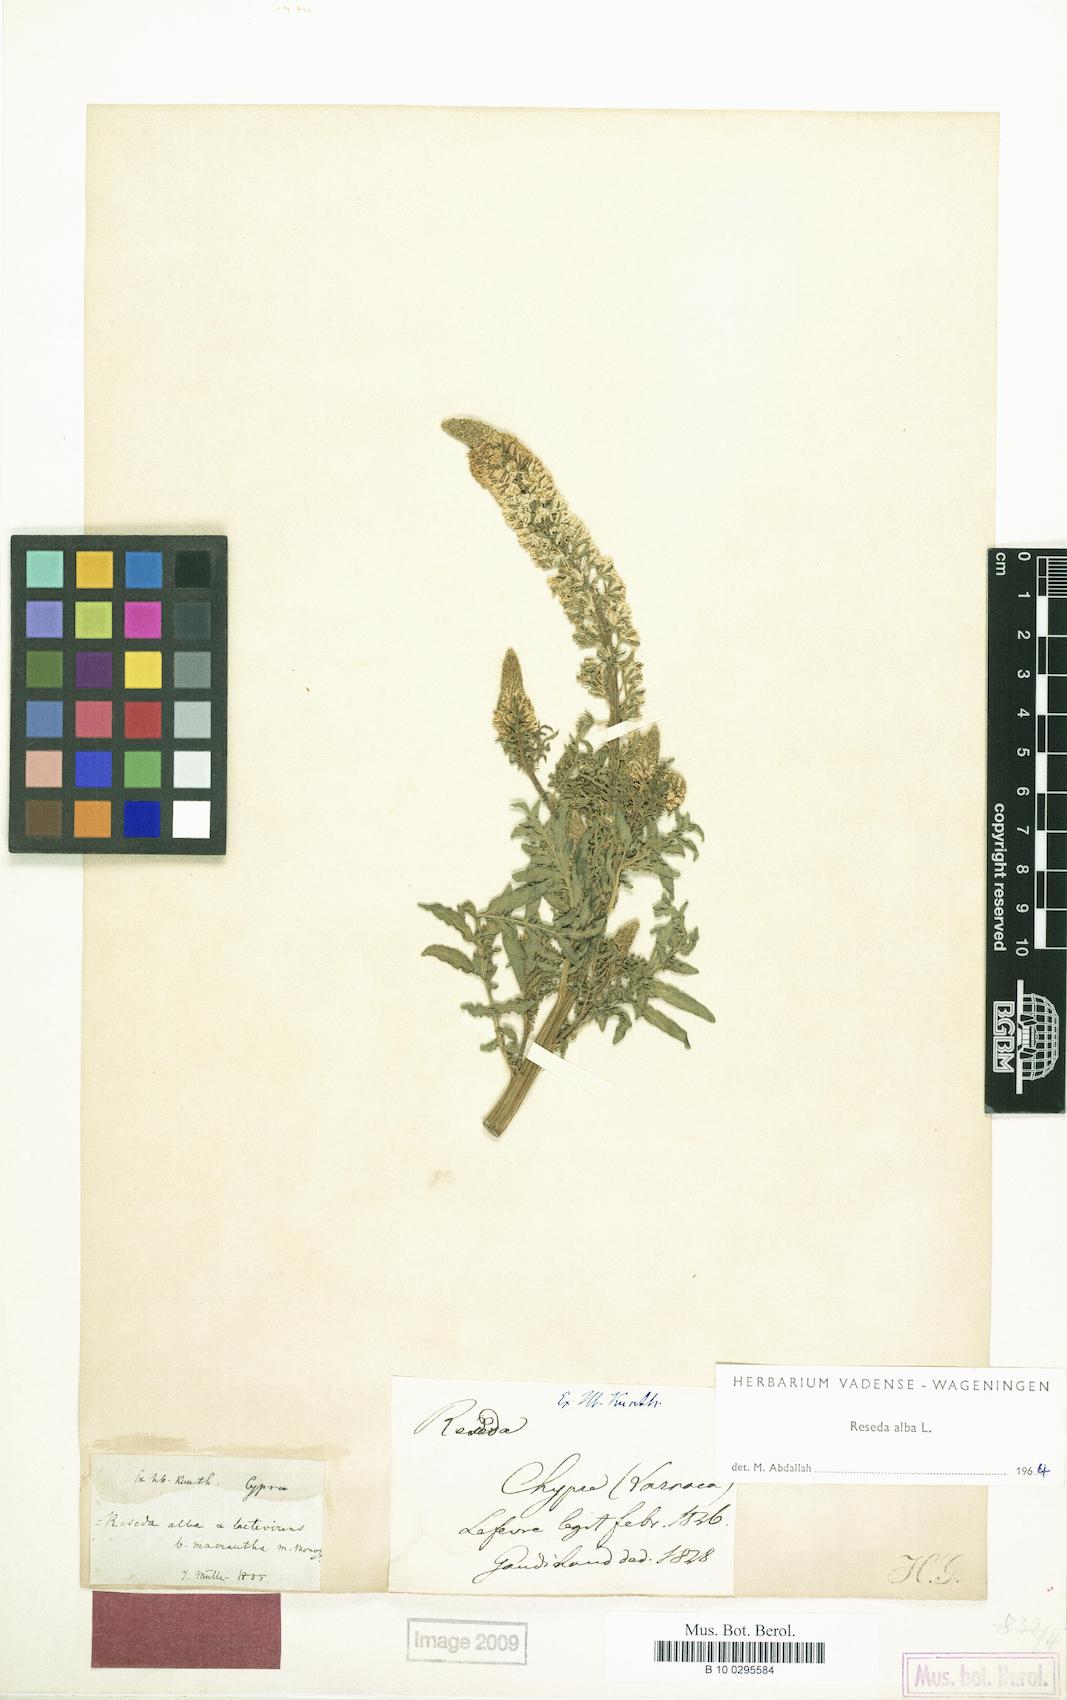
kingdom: Plantae
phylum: Tracheophyta
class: Magnoliopsida
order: Brassicales
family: Resedaceae
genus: Reseda
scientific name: Reseda alba
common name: White mignonette
